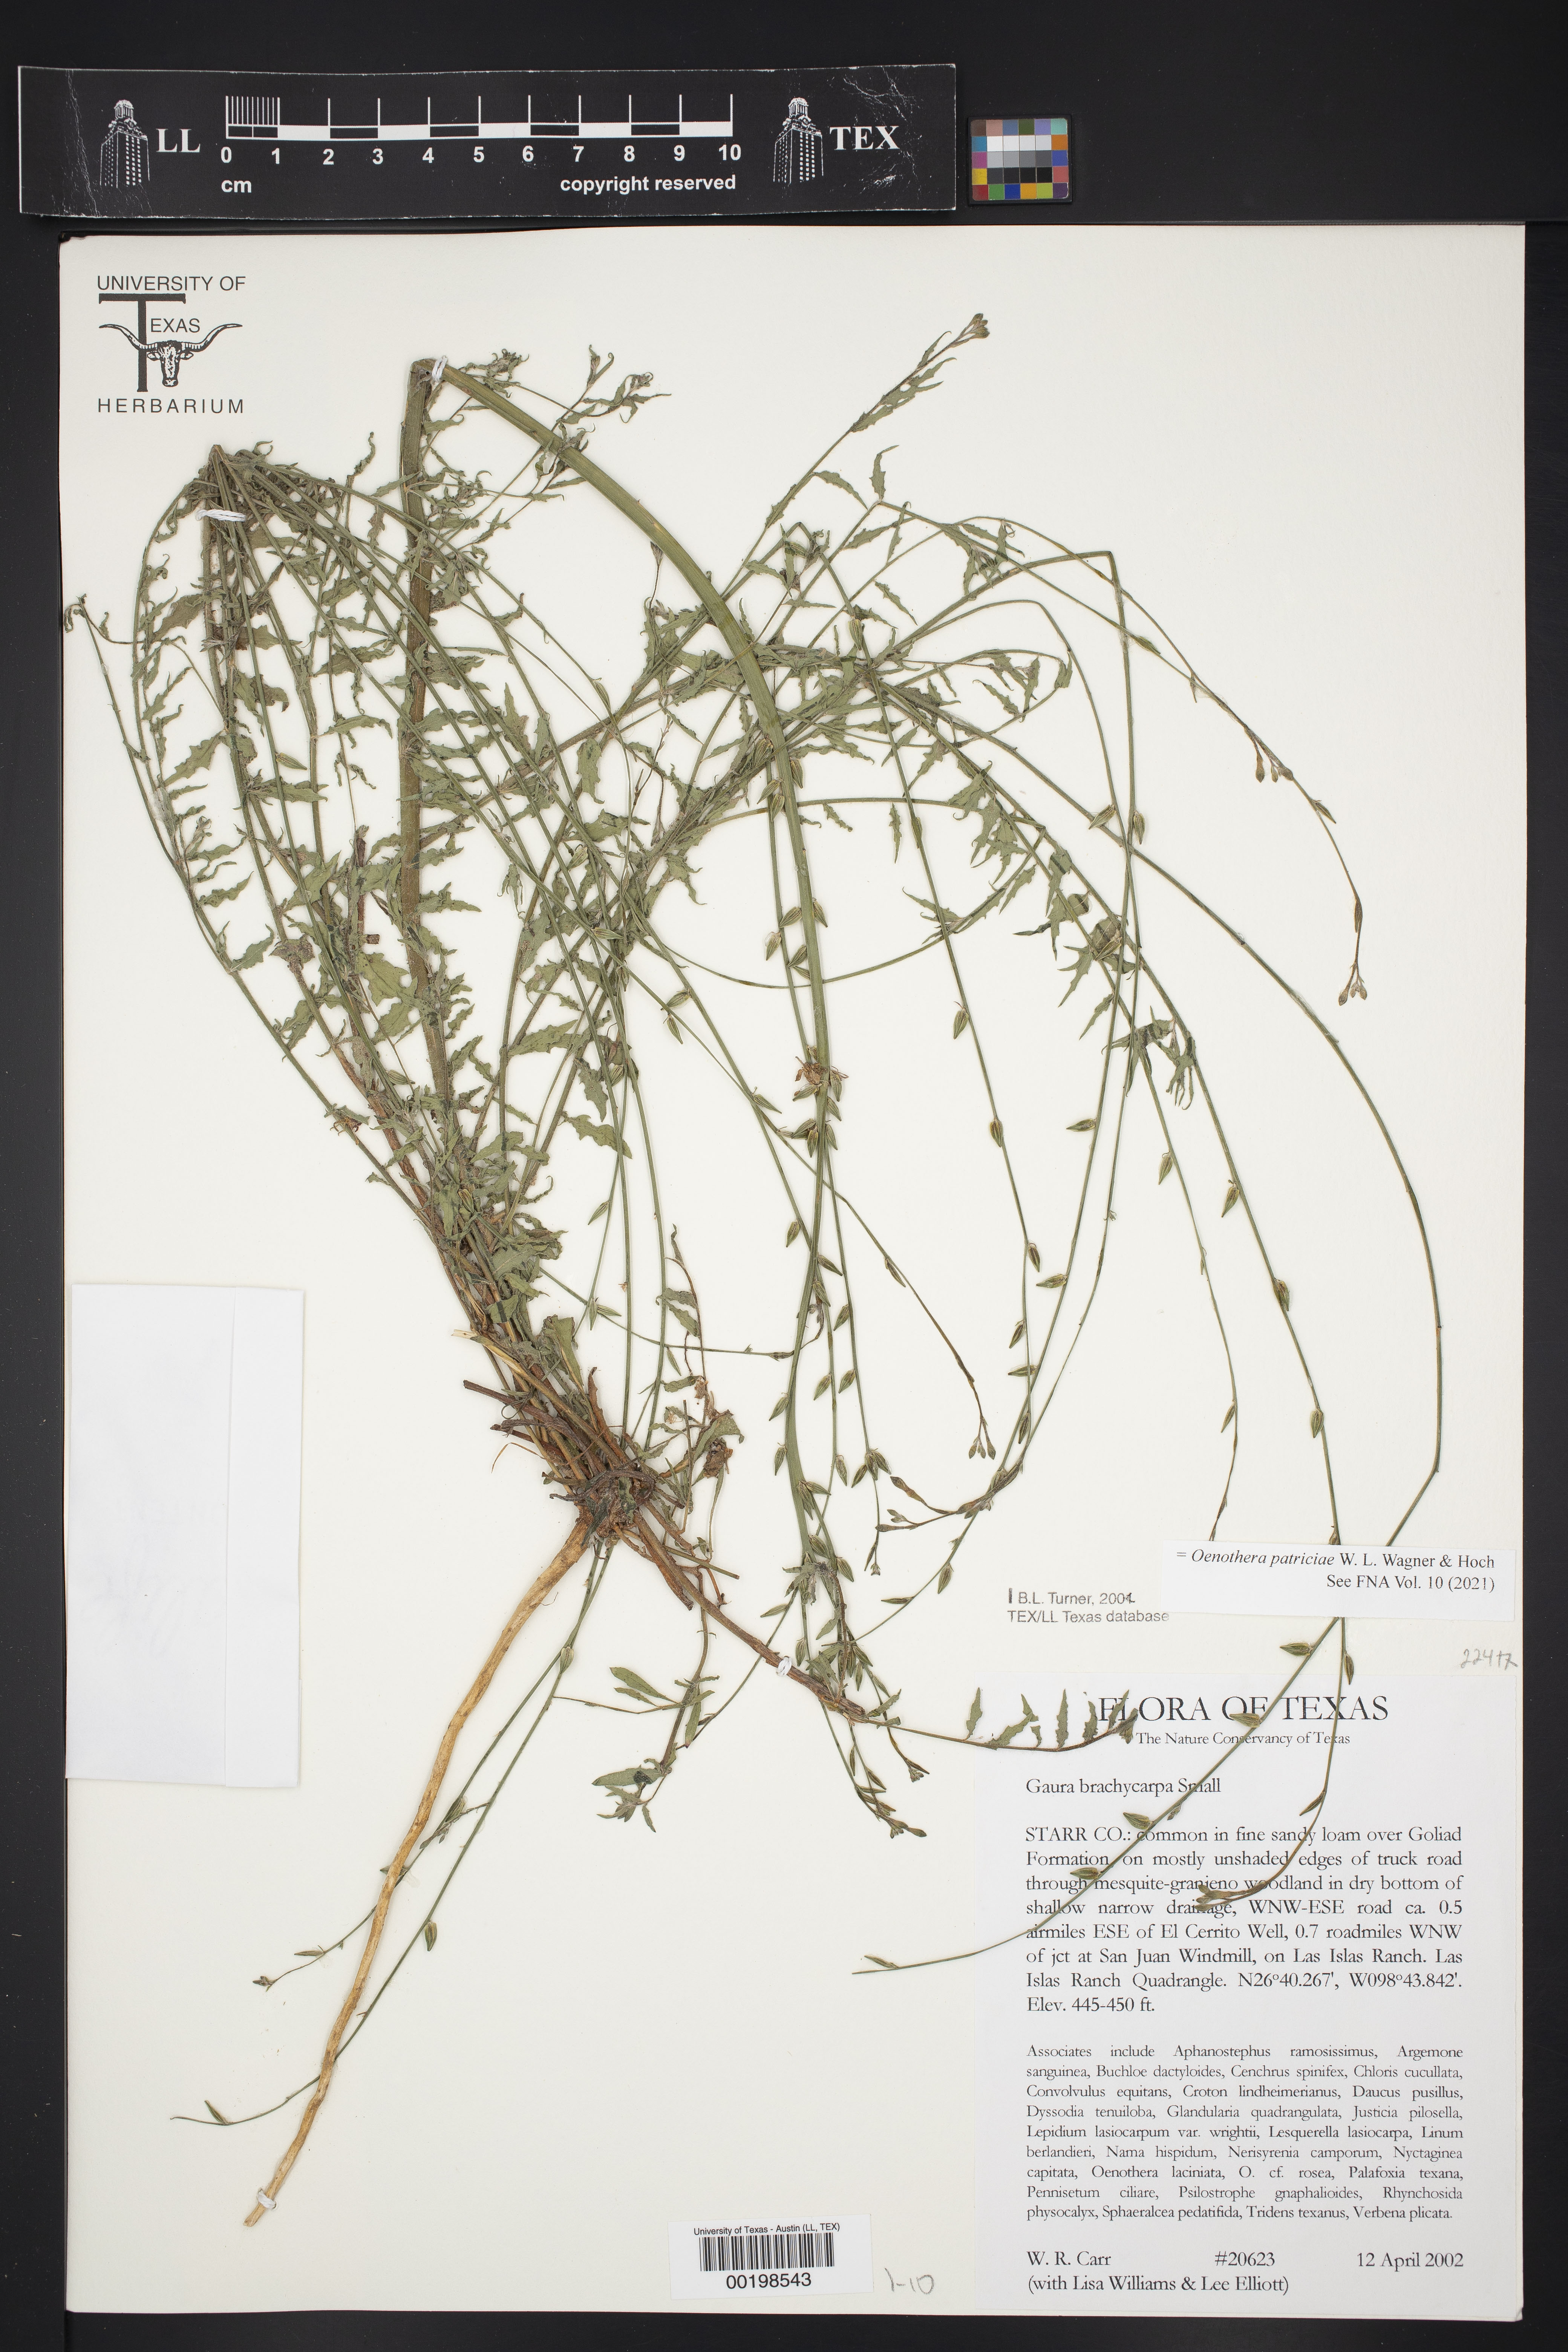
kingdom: Plantae
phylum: Tracheophyta
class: Magnoliopsida
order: Myrtales
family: Onagraceae
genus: Oenothera
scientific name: Oenothera patriciae
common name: Plains beeblossom
